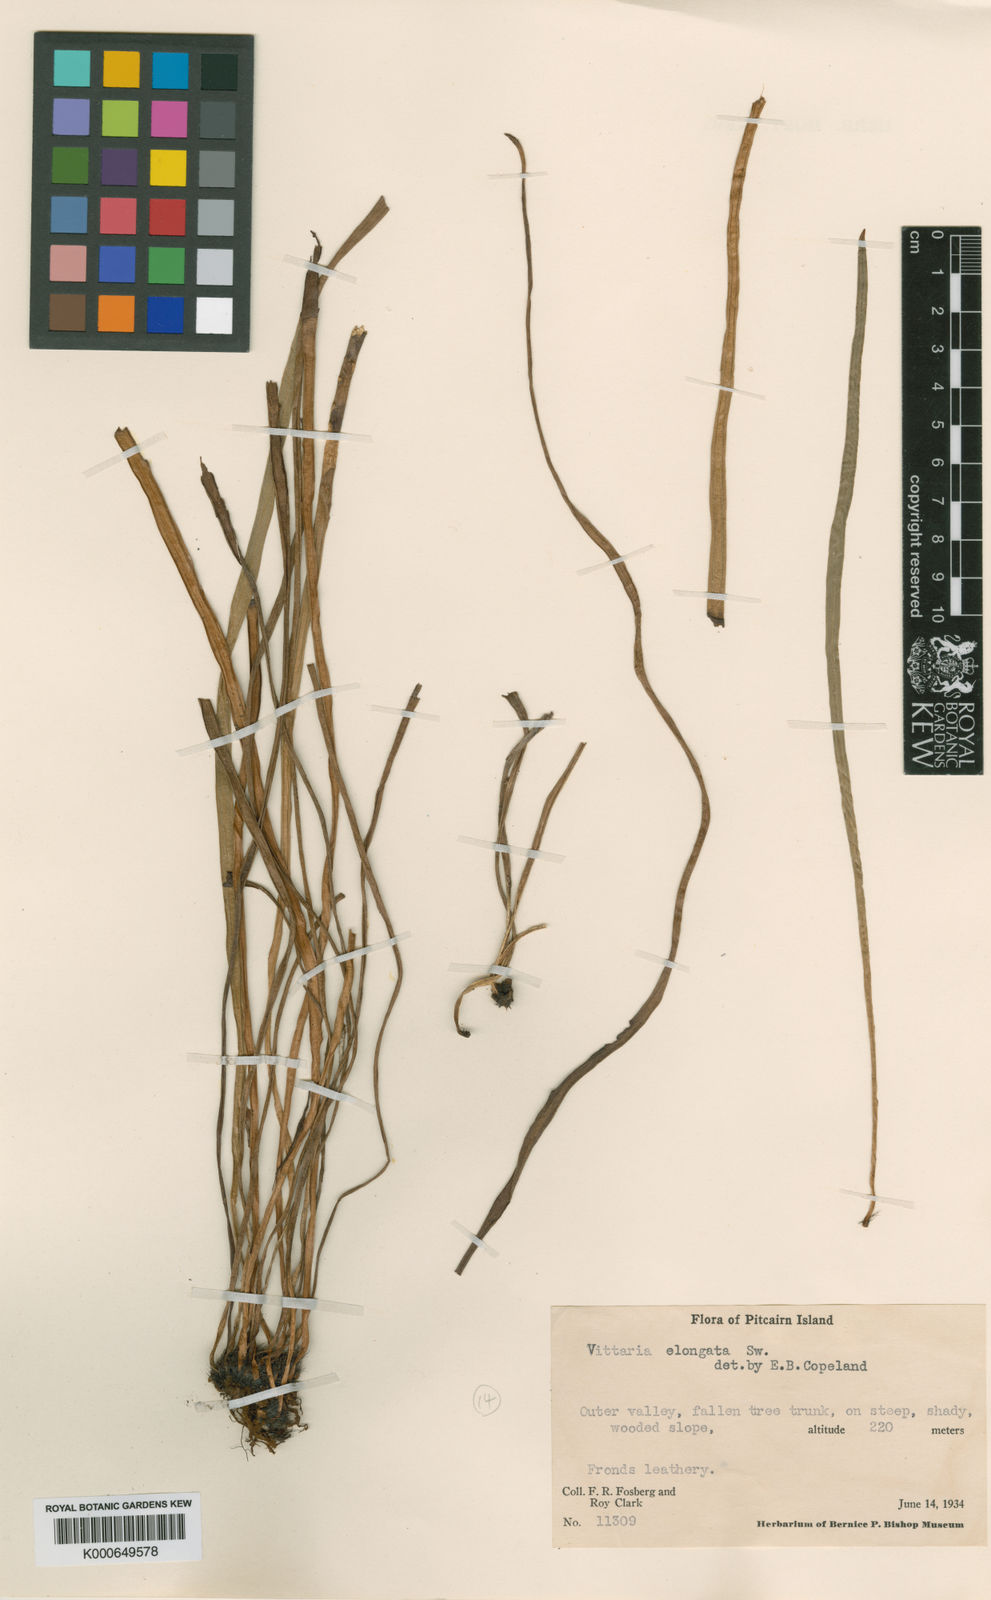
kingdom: Plantae
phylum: Tracheophyta
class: Polypodiopsida
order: Polypodiales
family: Pteridaceae
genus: Haplopteris
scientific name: Haplopteris elongata
